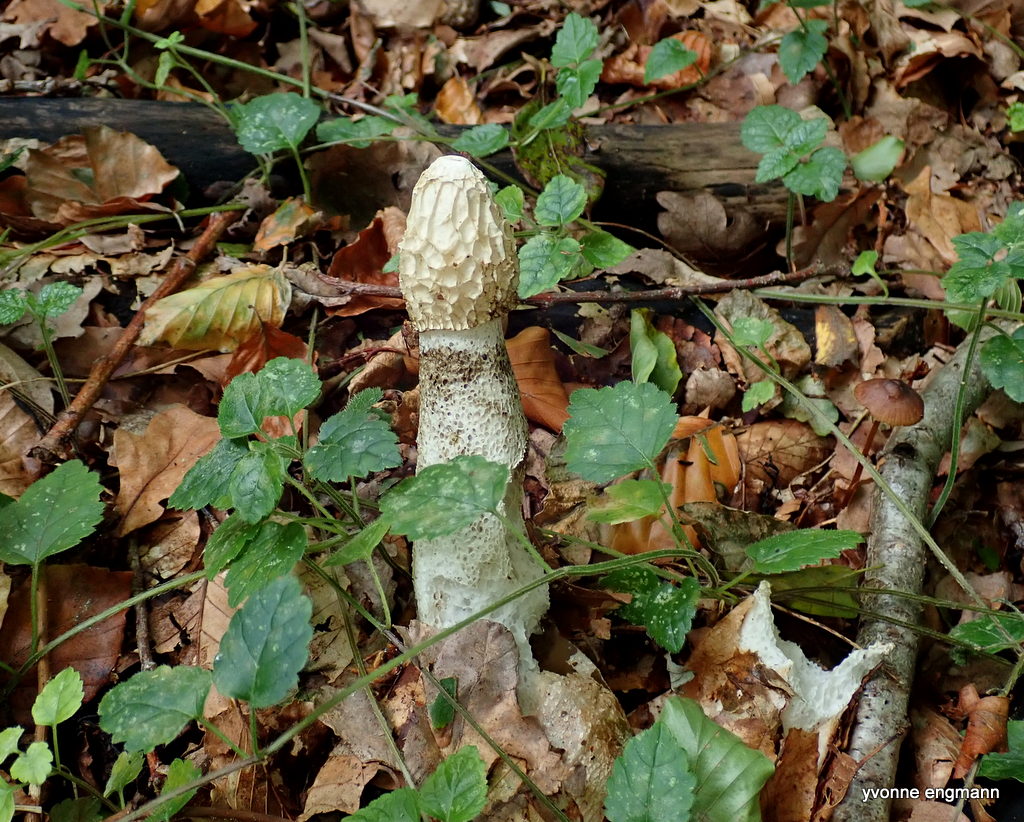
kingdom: Fungi
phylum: Basidiomycota
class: Agaricomycetes
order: Phallales
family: Phallaceae
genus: Phallus
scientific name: Phallus impudicus
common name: almindelig stinksvamp
